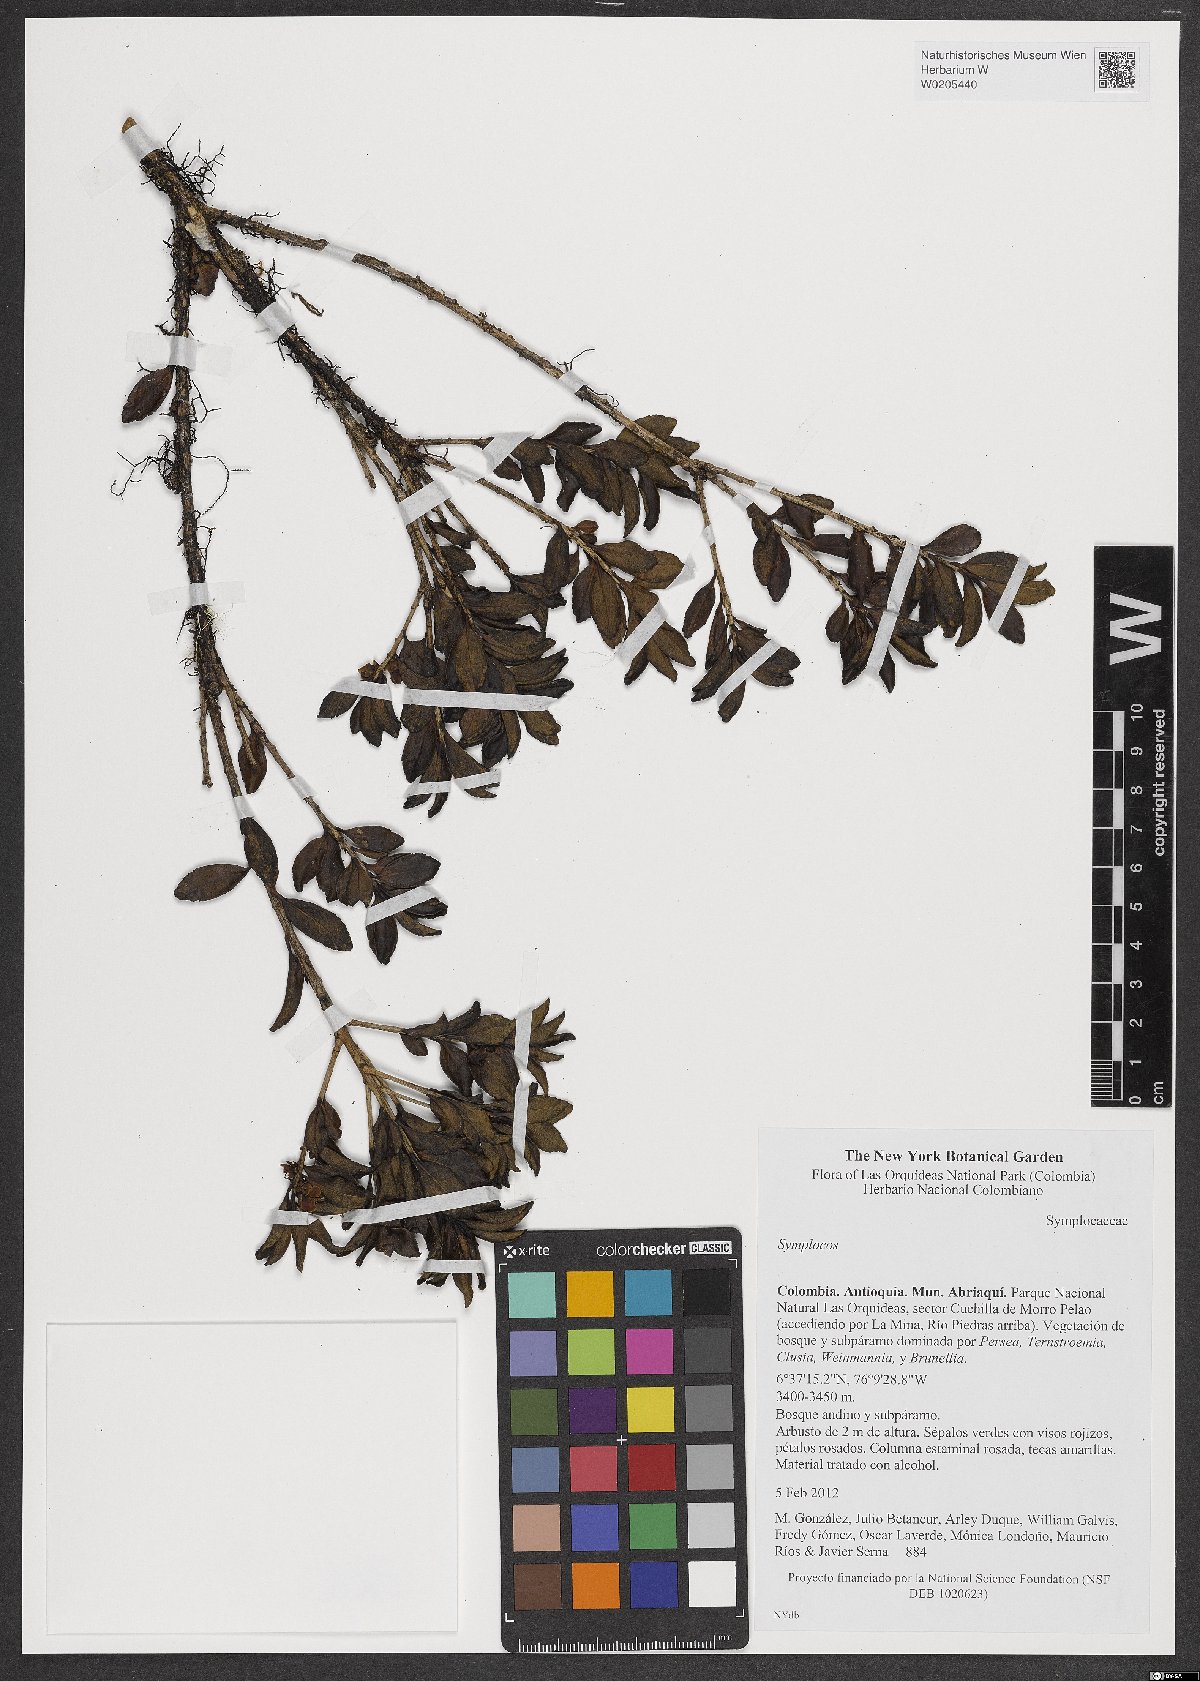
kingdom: Plantae
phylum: Tracheophyta
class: Magnoliopsida
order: Ericales
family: Symplocaceae
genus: Symplocos
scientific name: Symplocos
